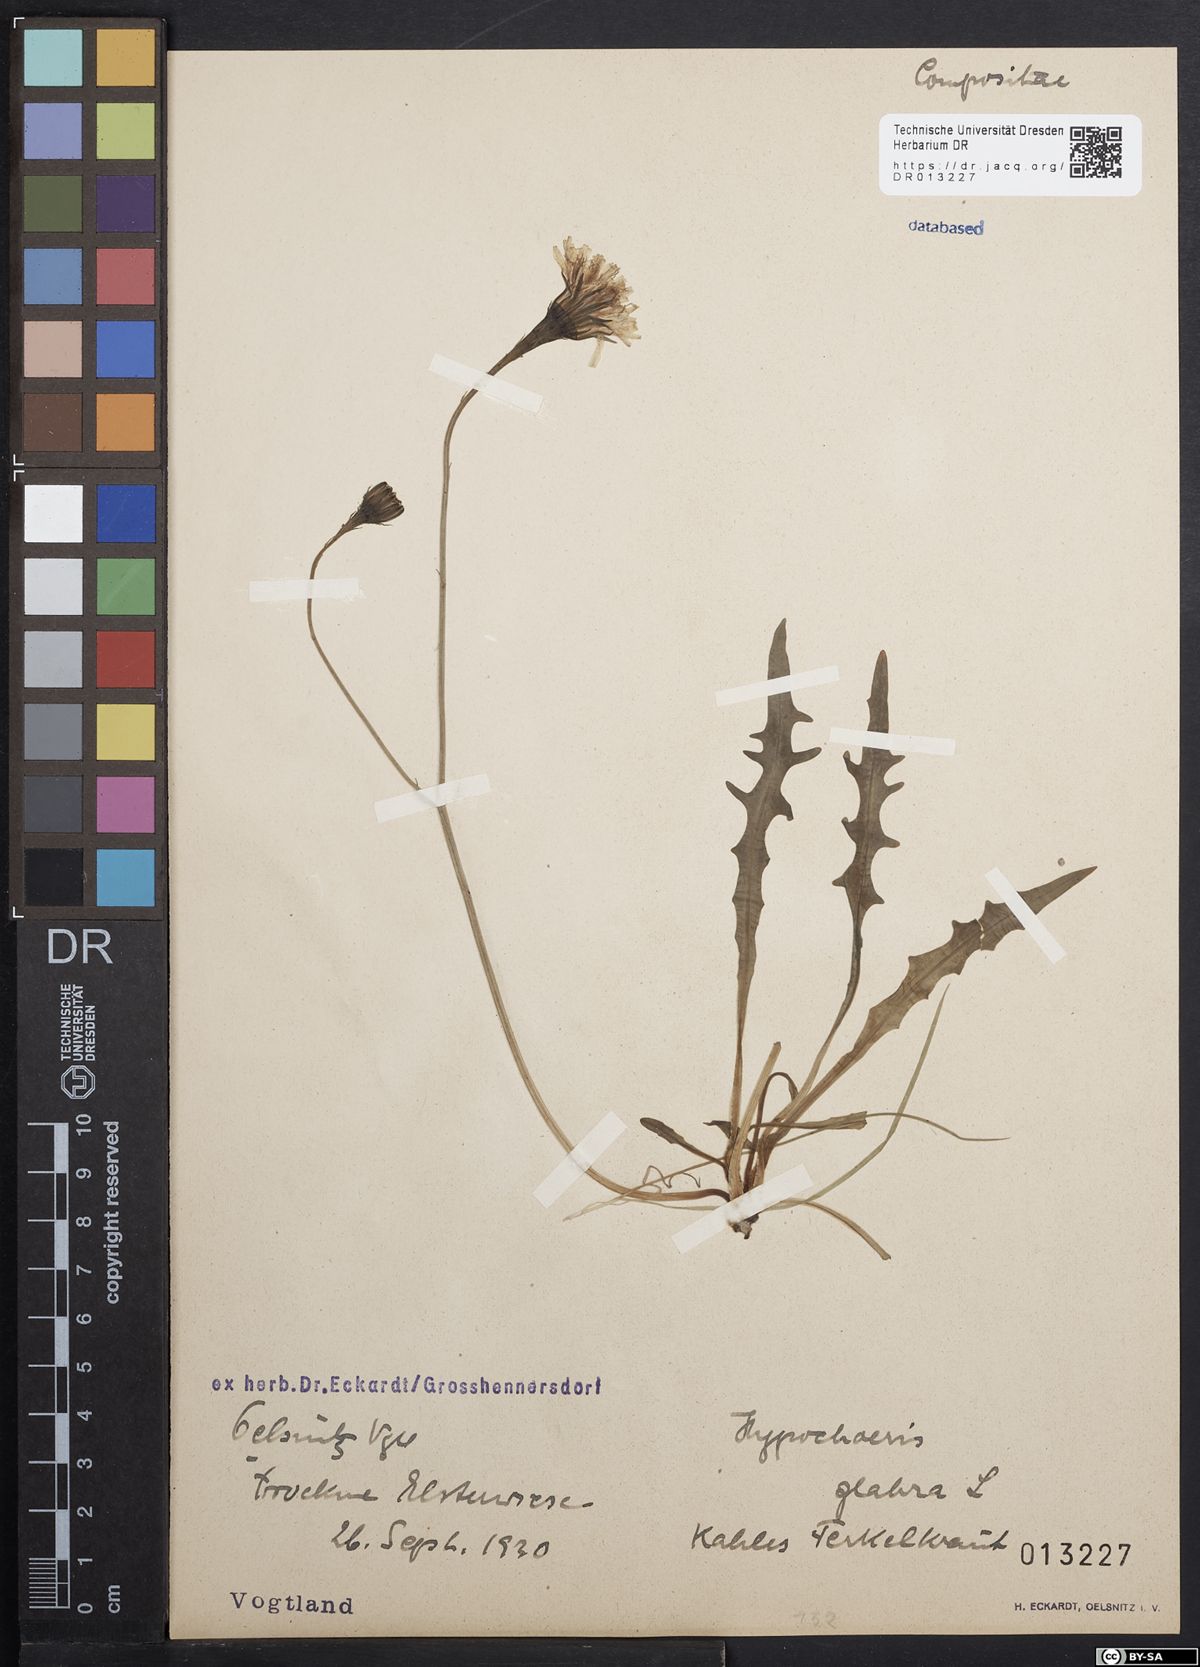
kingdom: Plantae
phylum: Tracheophyta
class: Magnoliopsida
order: Asterales
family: Asteraceae
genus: Hypochaeris
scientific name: Hypochaeris glabra
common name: Smooth catsear
